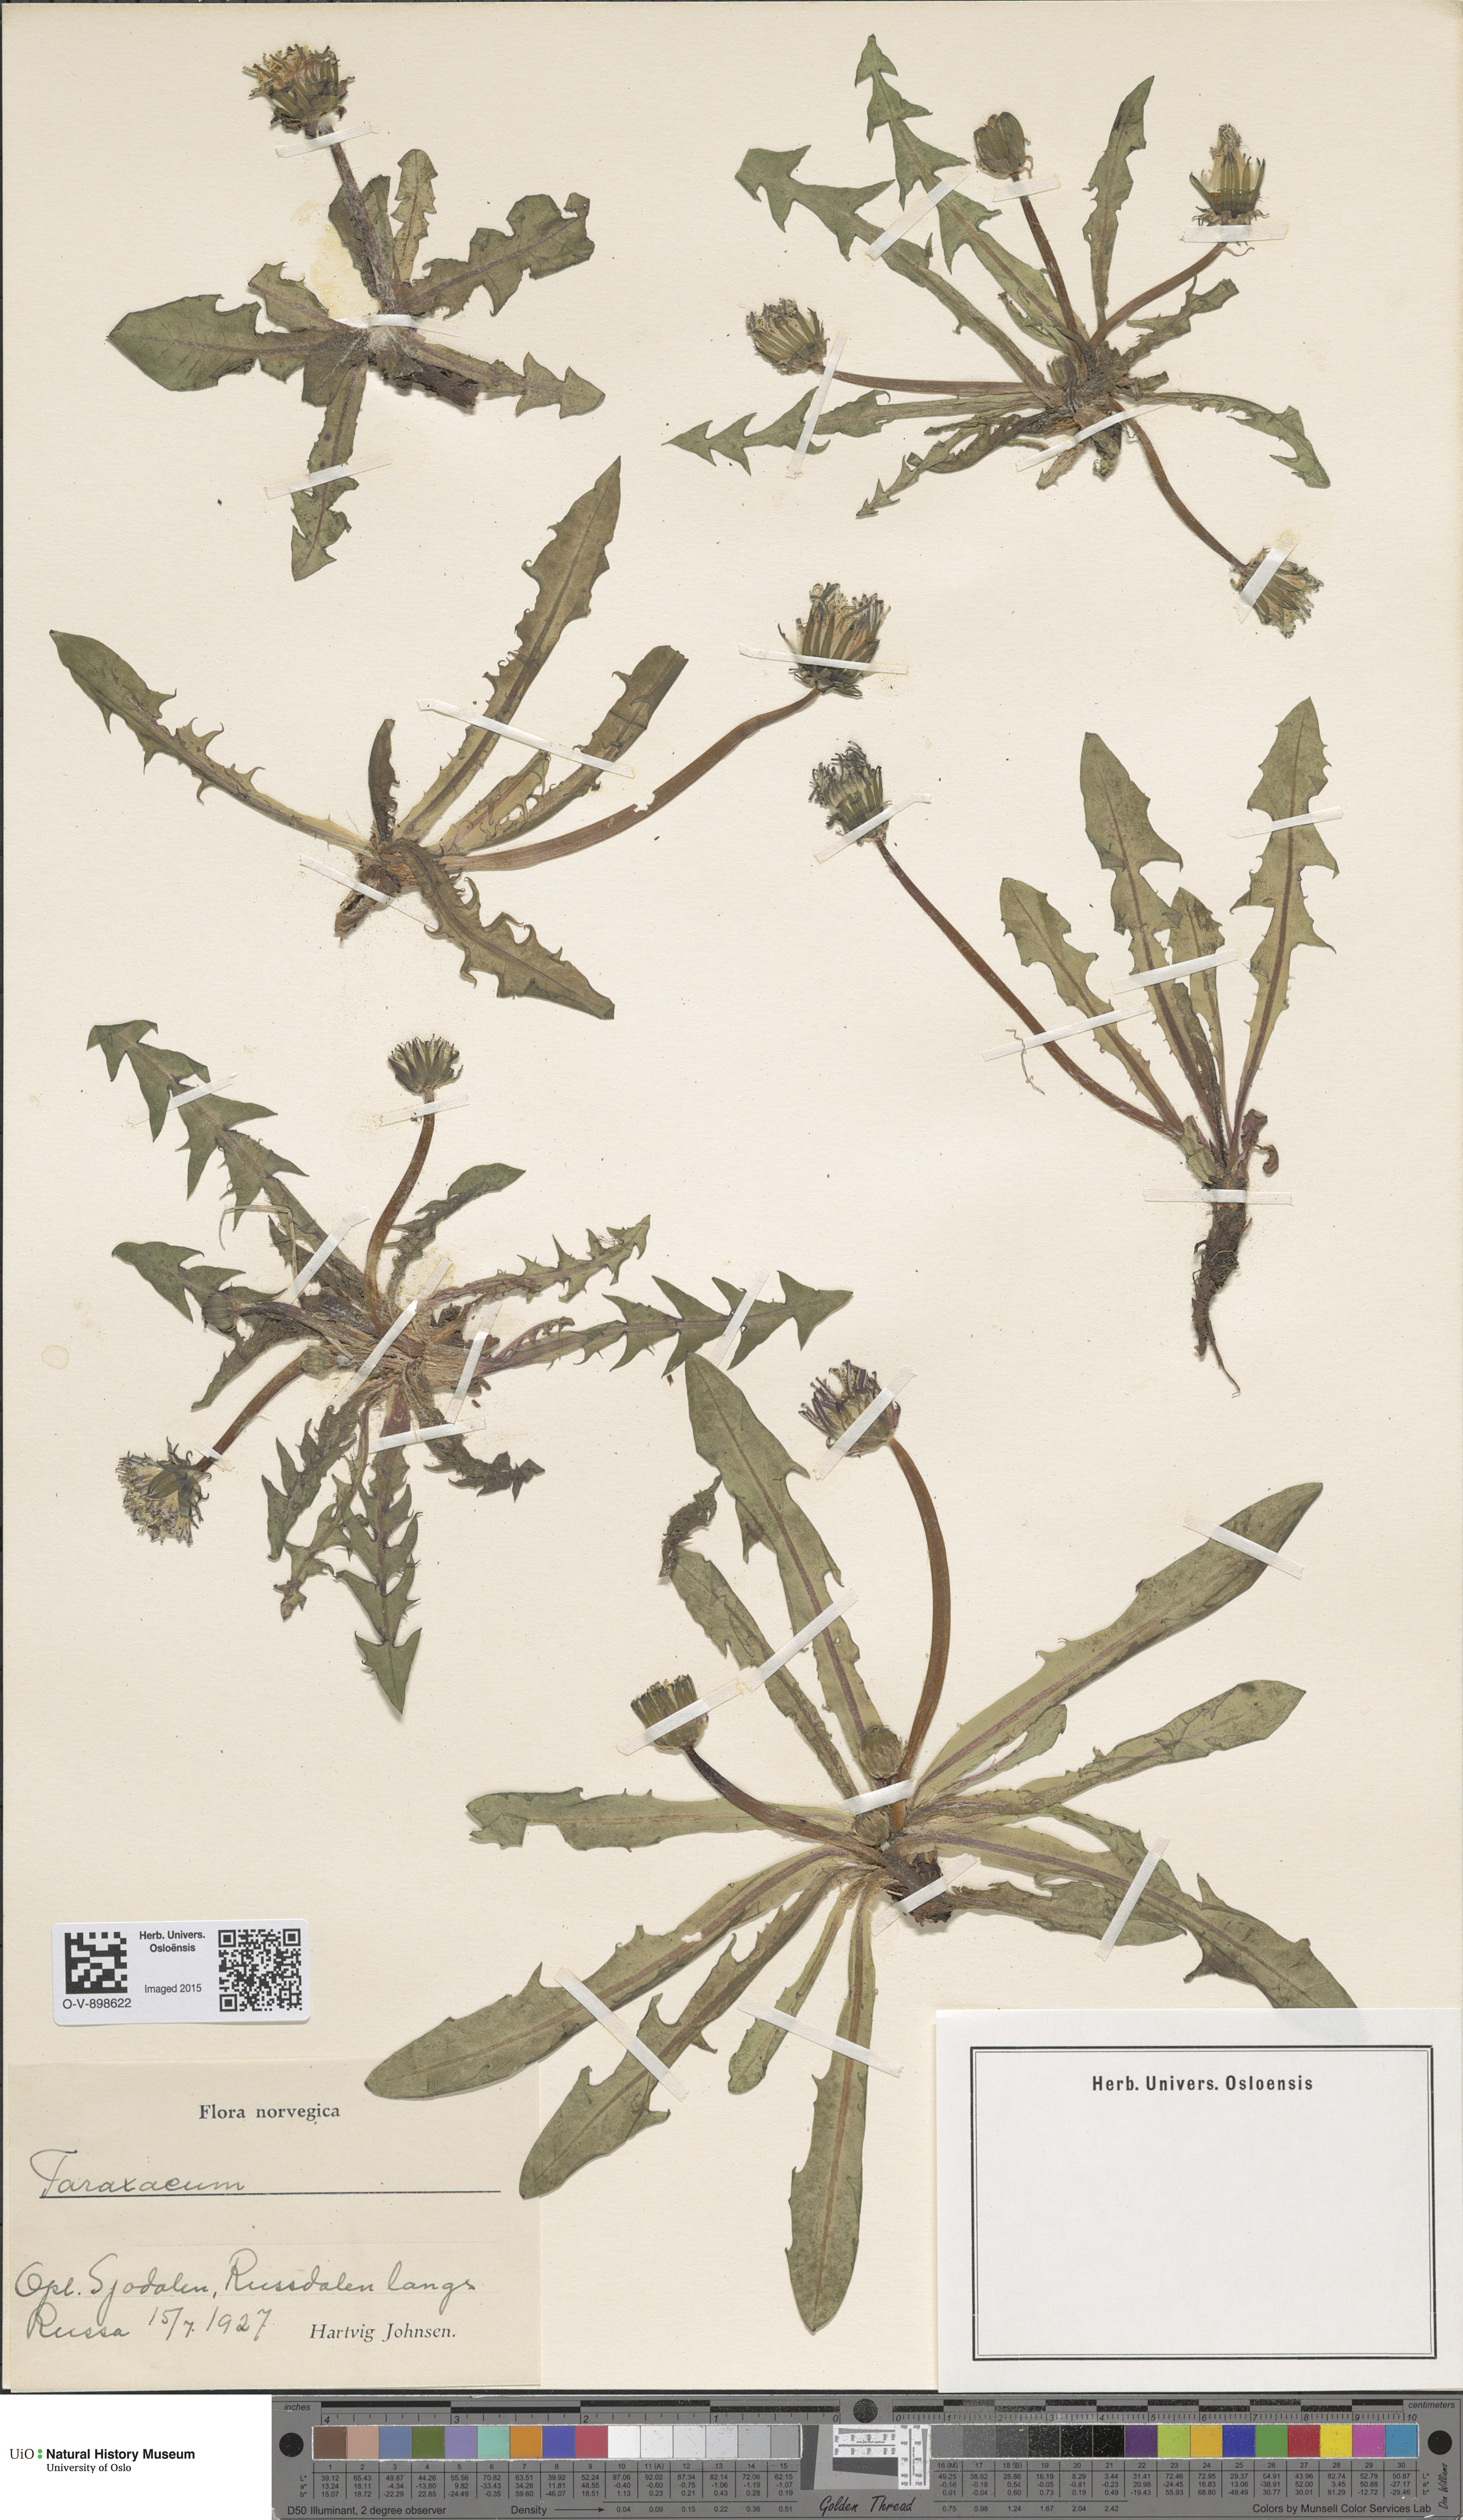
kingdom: Plantae
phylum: Tracheophyta
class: Magnoliopsida
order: Asterales
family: Asteraceae
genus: Taraxacum
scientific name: Taraxacum
